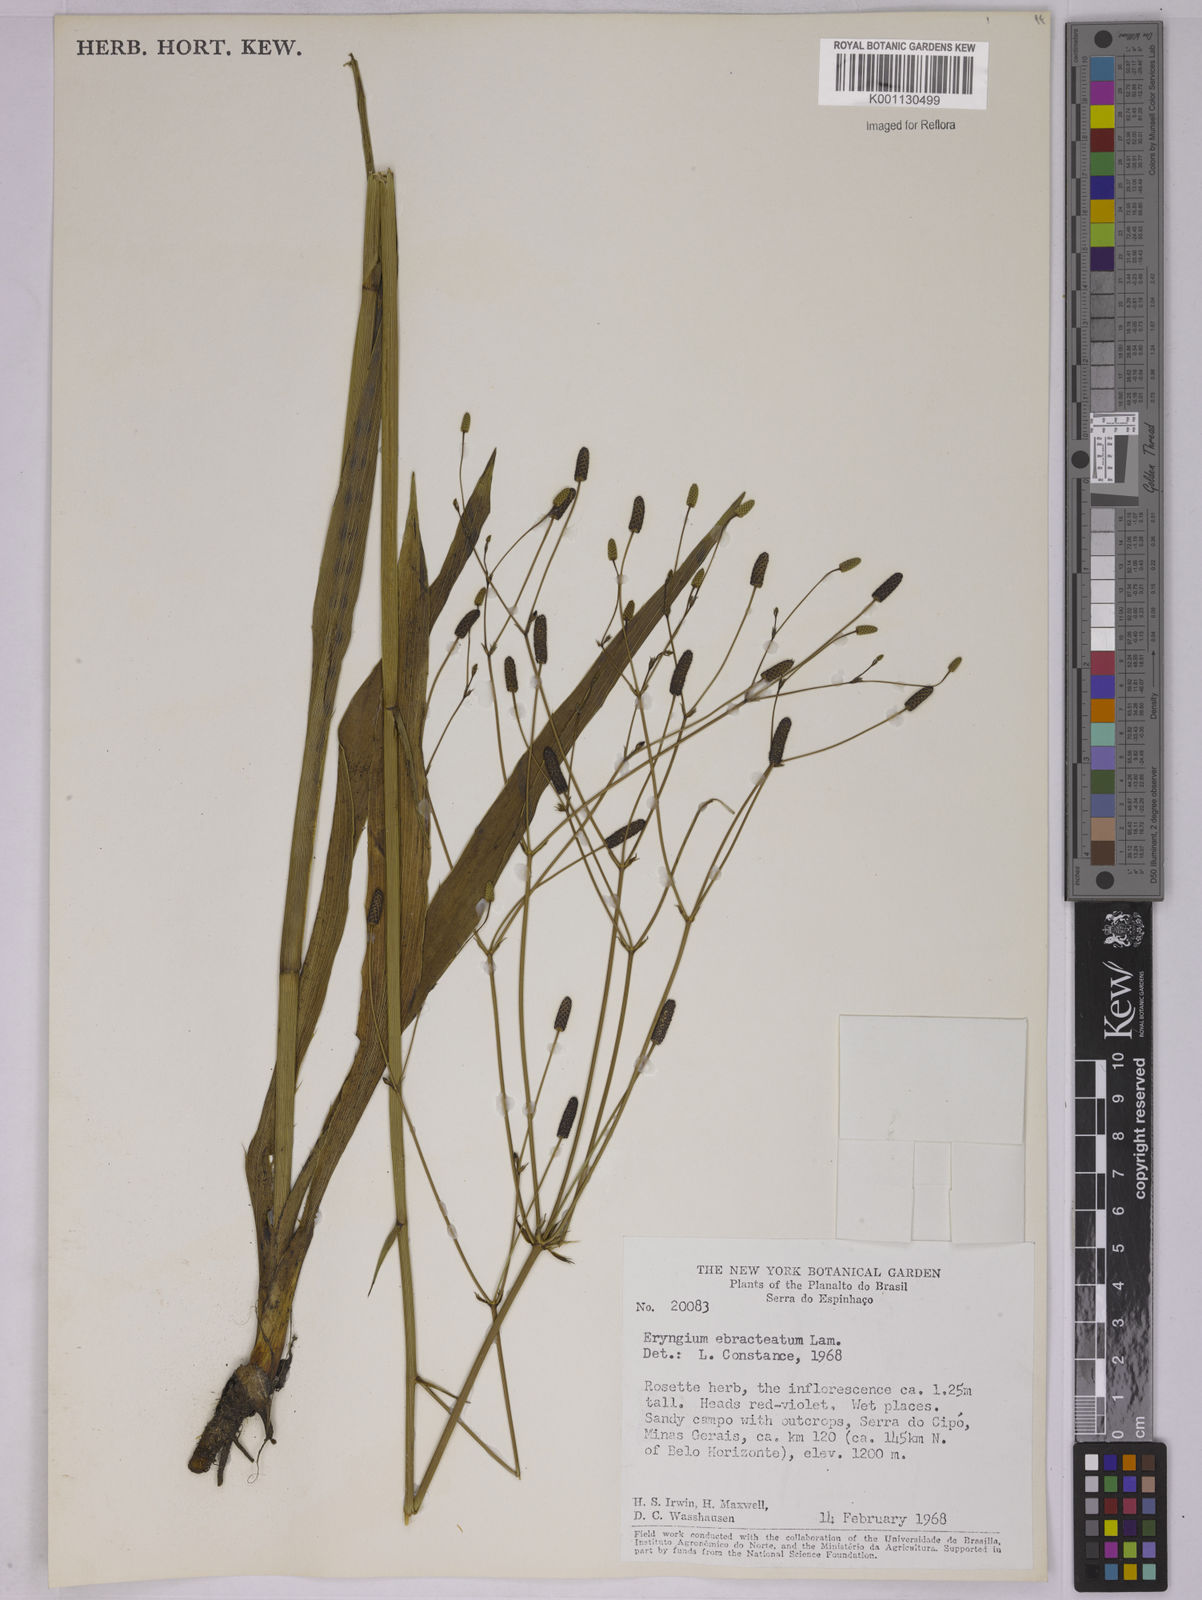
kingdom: Plantae
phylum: Tracheophyta
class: Magnoliopsida
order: Apiales
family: Apiaceae
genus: Eryngium
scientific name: Eryngium ebracteatum
